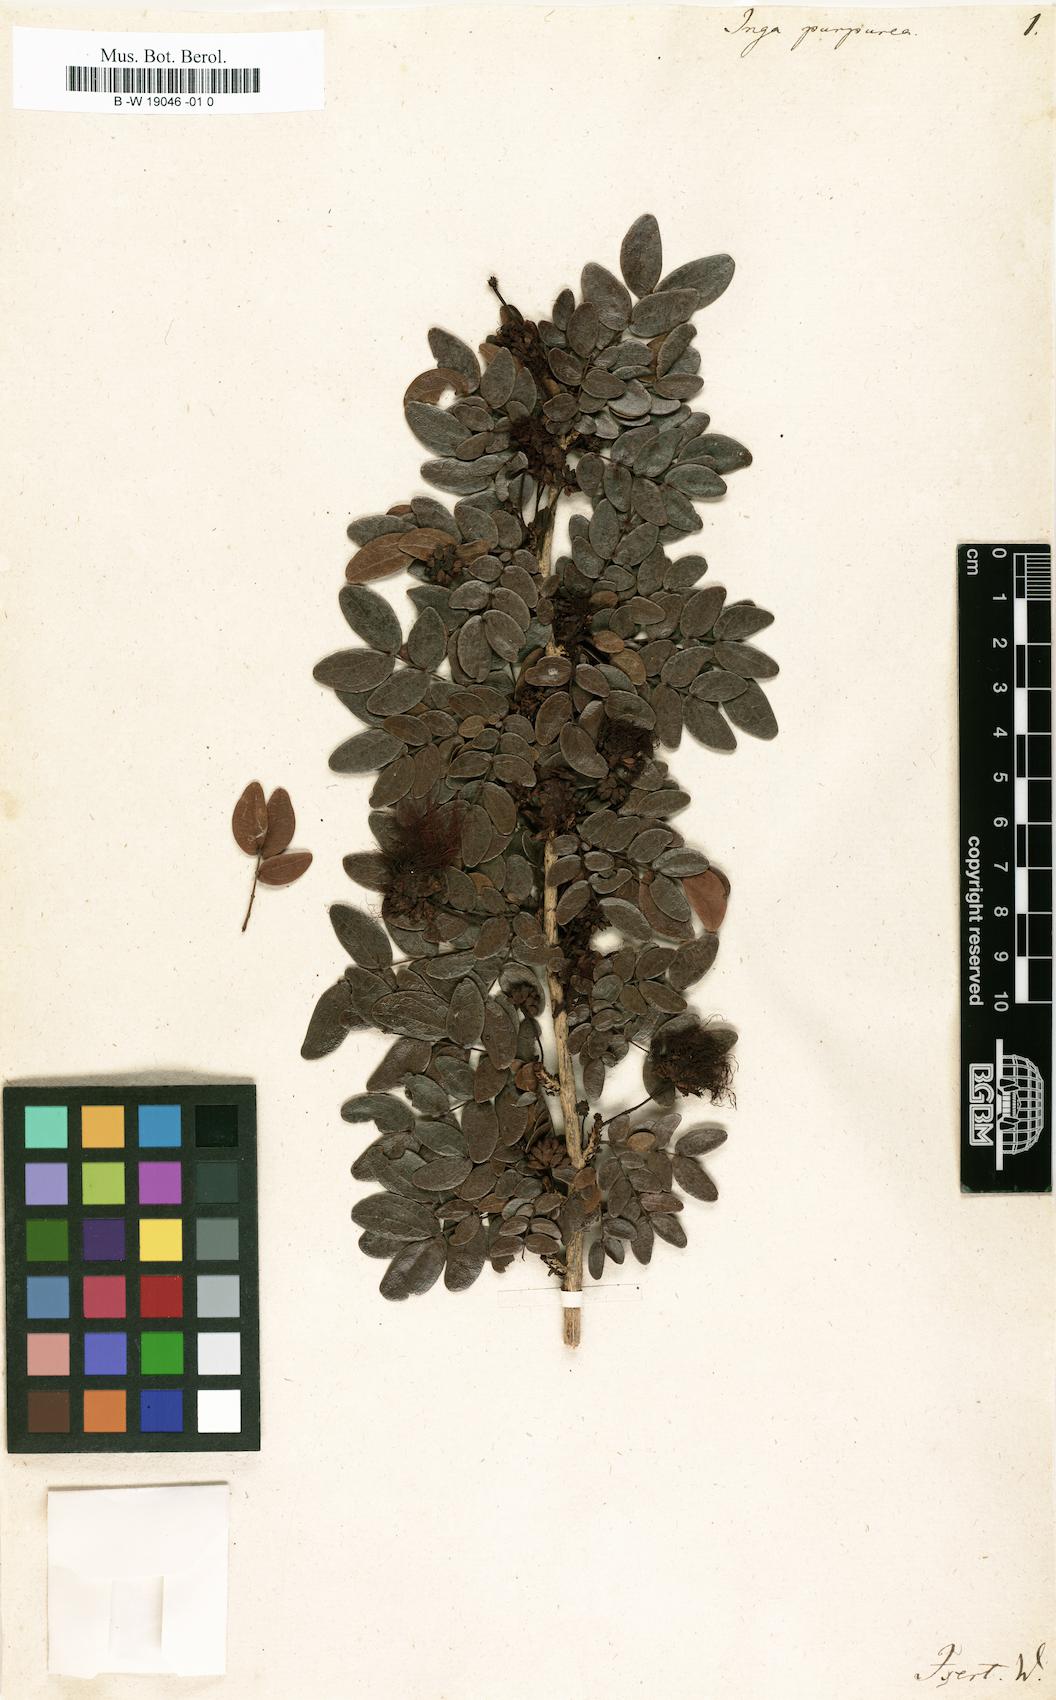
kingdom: Plantae
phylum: Tracheophyta
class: Magnoliopsida
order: Fabales
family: Fabaceae
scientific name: Fabaceae
